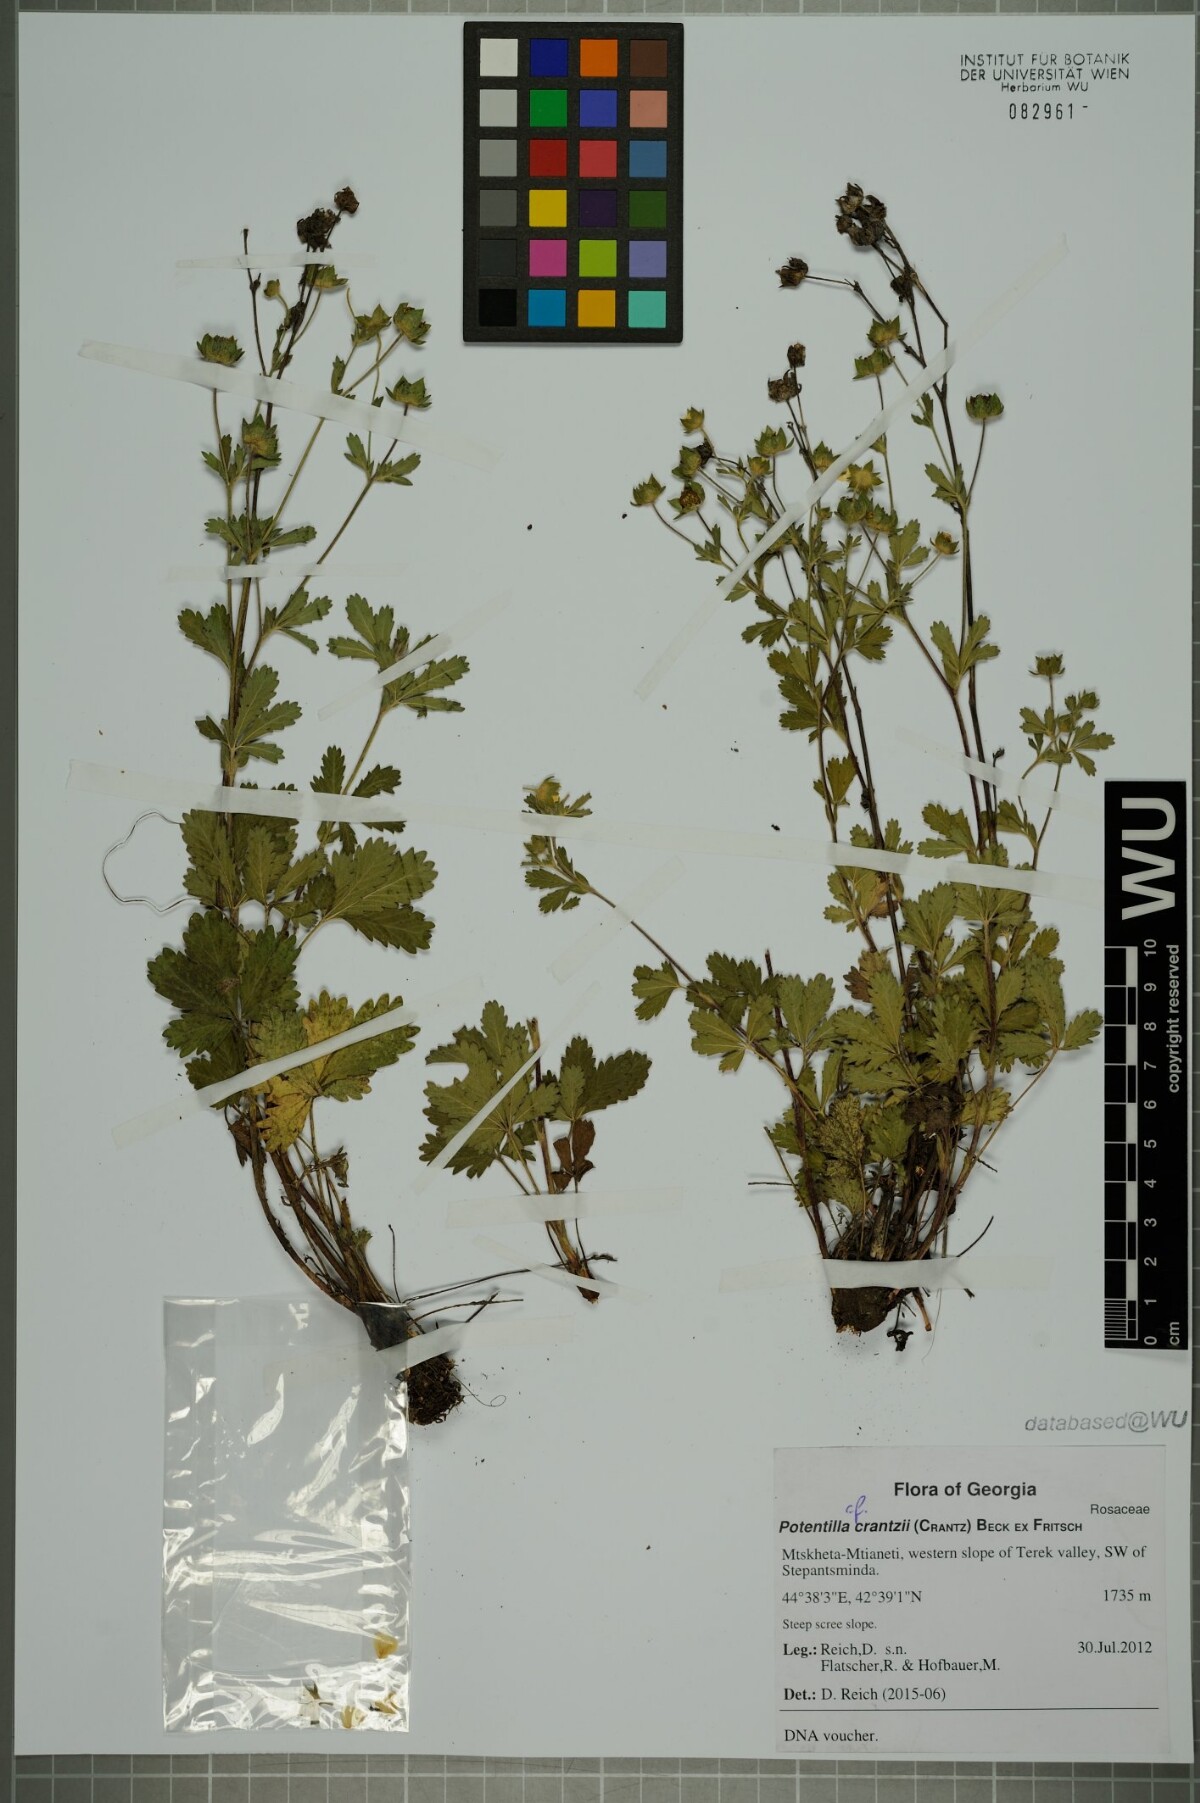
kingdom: Plantae
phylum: Tracheophyta
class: Magnoliopsida
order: Rosales
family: Rosaceae
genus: Potentilla
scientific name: Potentilla crantzii
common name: Alpine cinquefoil
